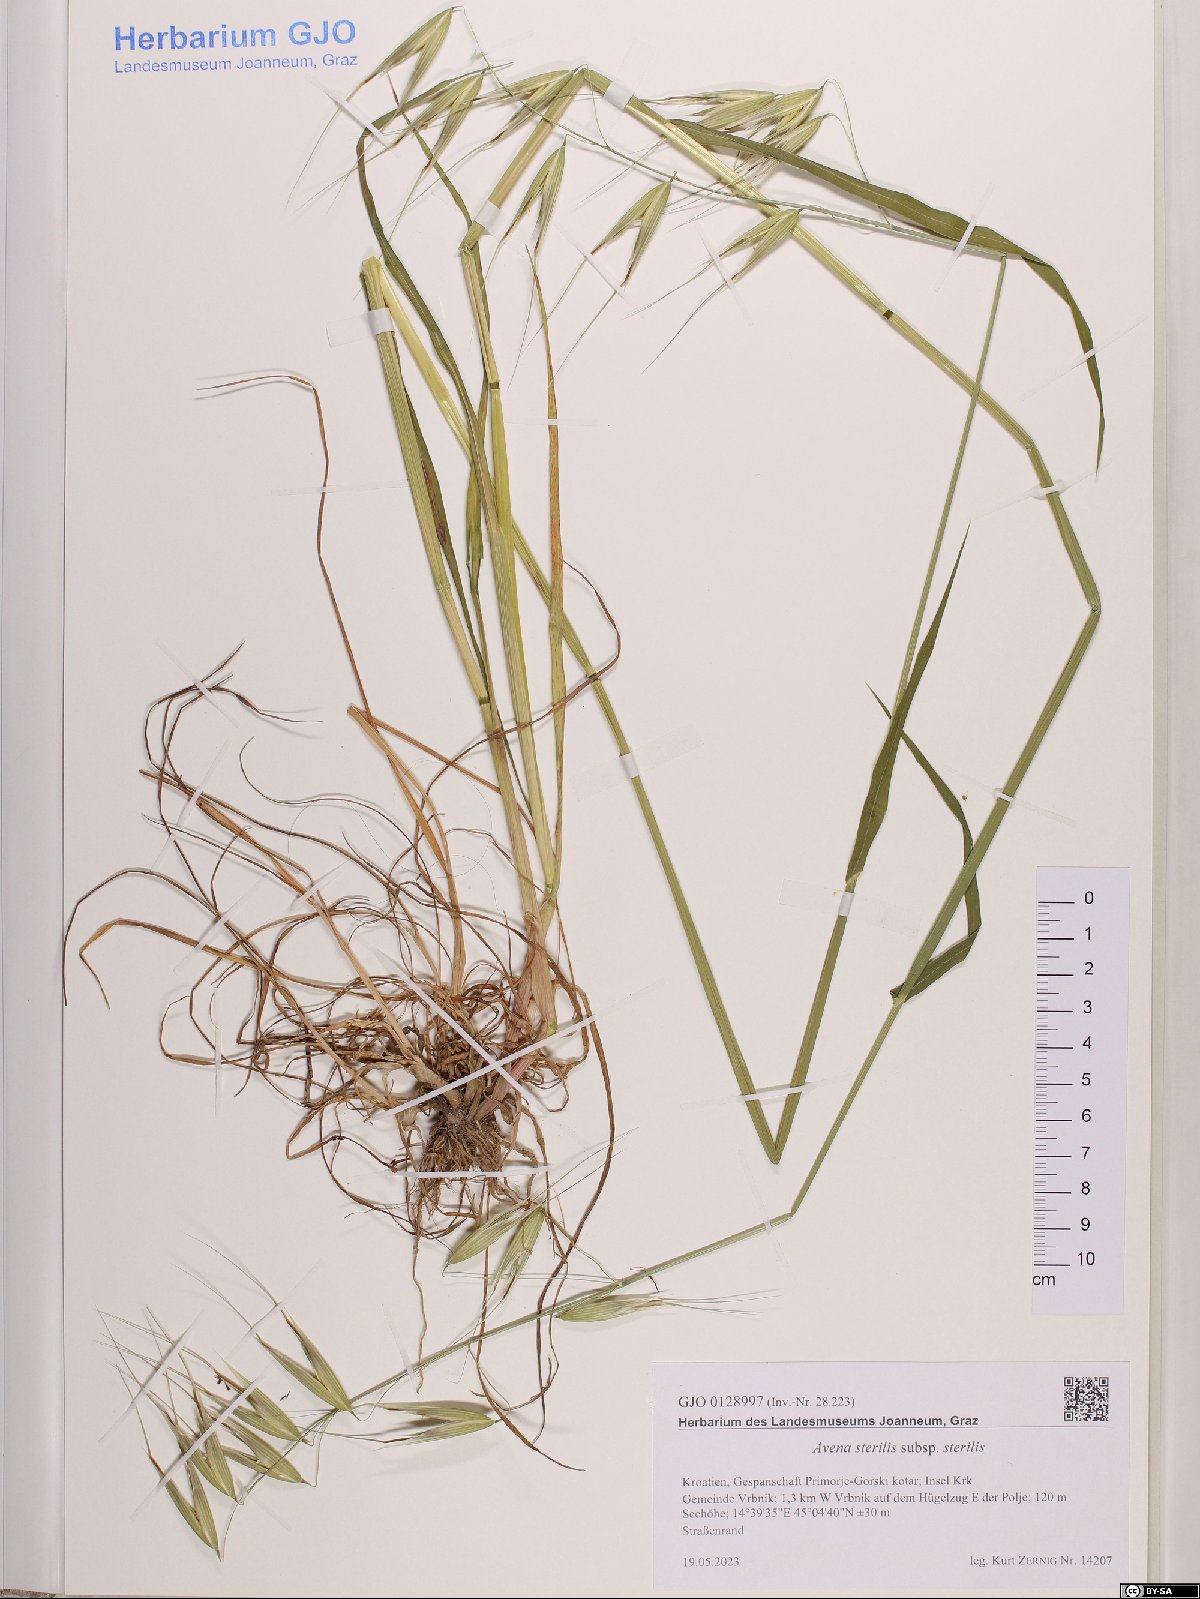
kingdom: Plantae
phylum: Tracheophyta
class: Liliopsida
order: Poales
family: Poaceae
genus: Avena
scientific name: Avena sterilis
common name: Animated oat
